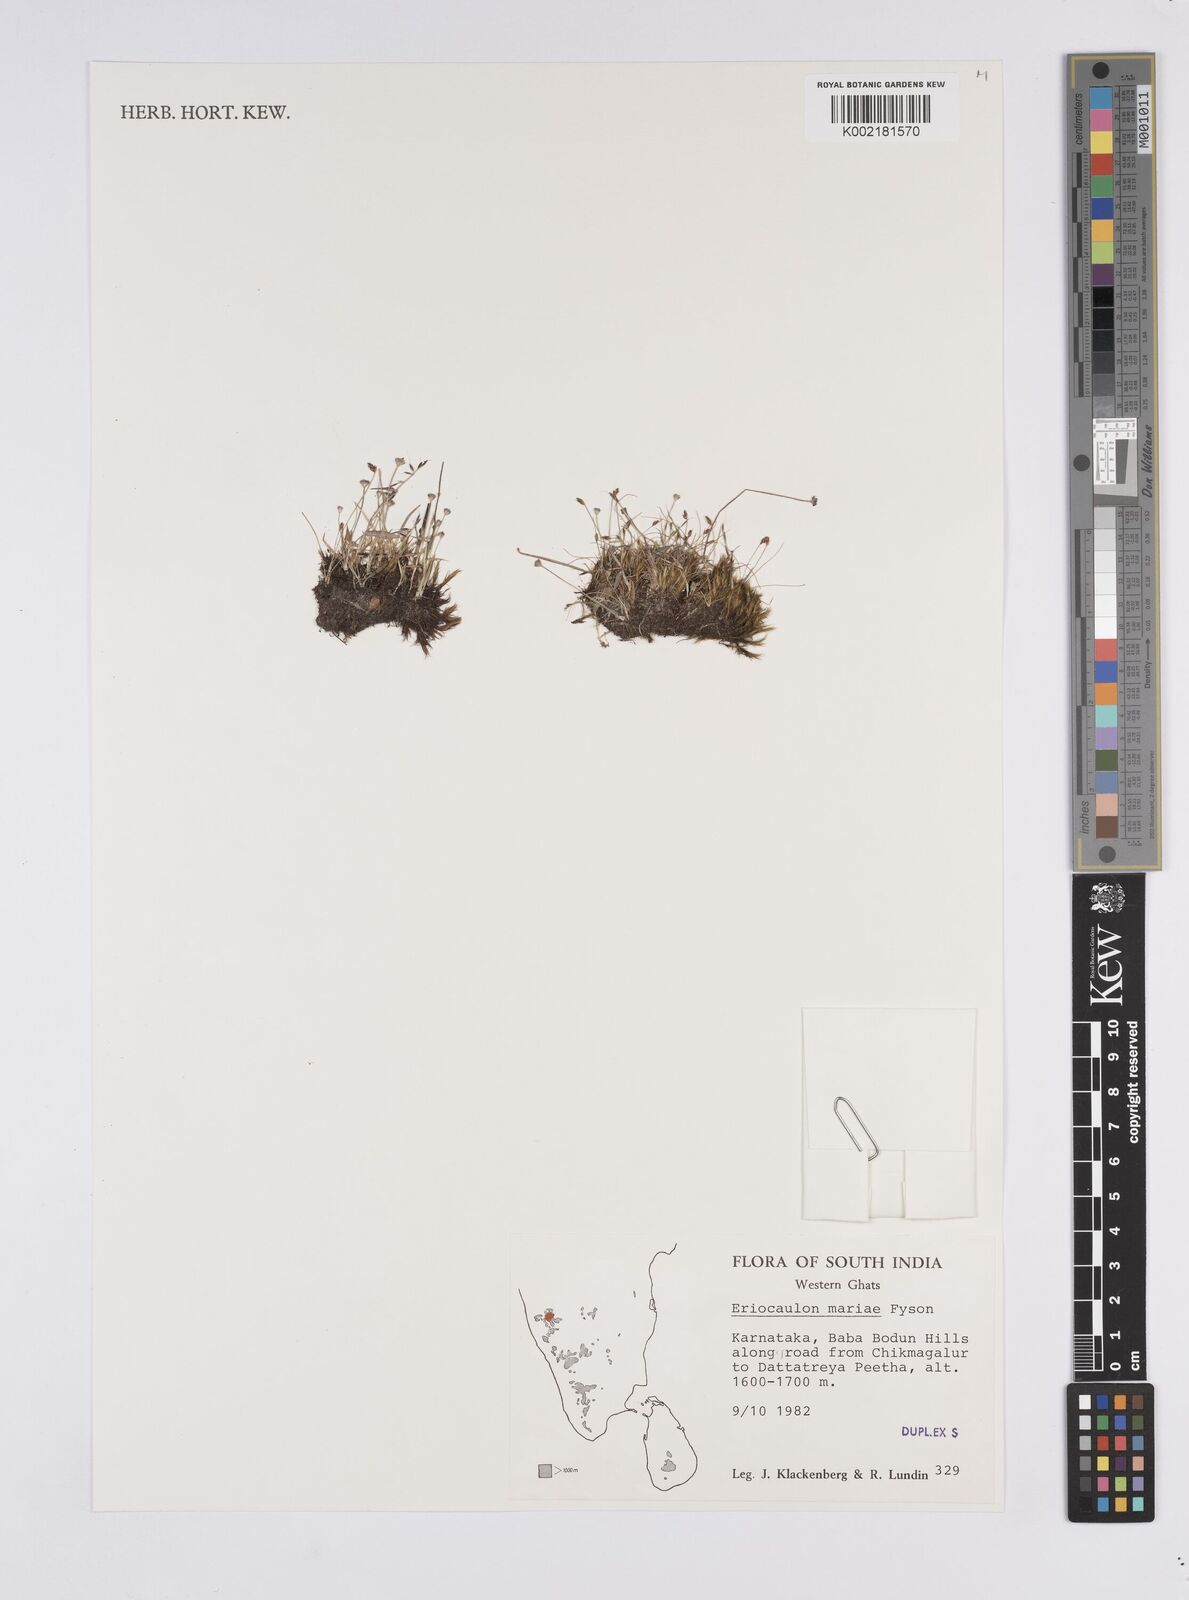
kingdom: Plantae
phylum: Tracheophyta
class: Liliopsida
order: Poales
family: Eriocaulaceae
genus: Eriocaulon
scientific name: Eriocaulon thwaitesii
